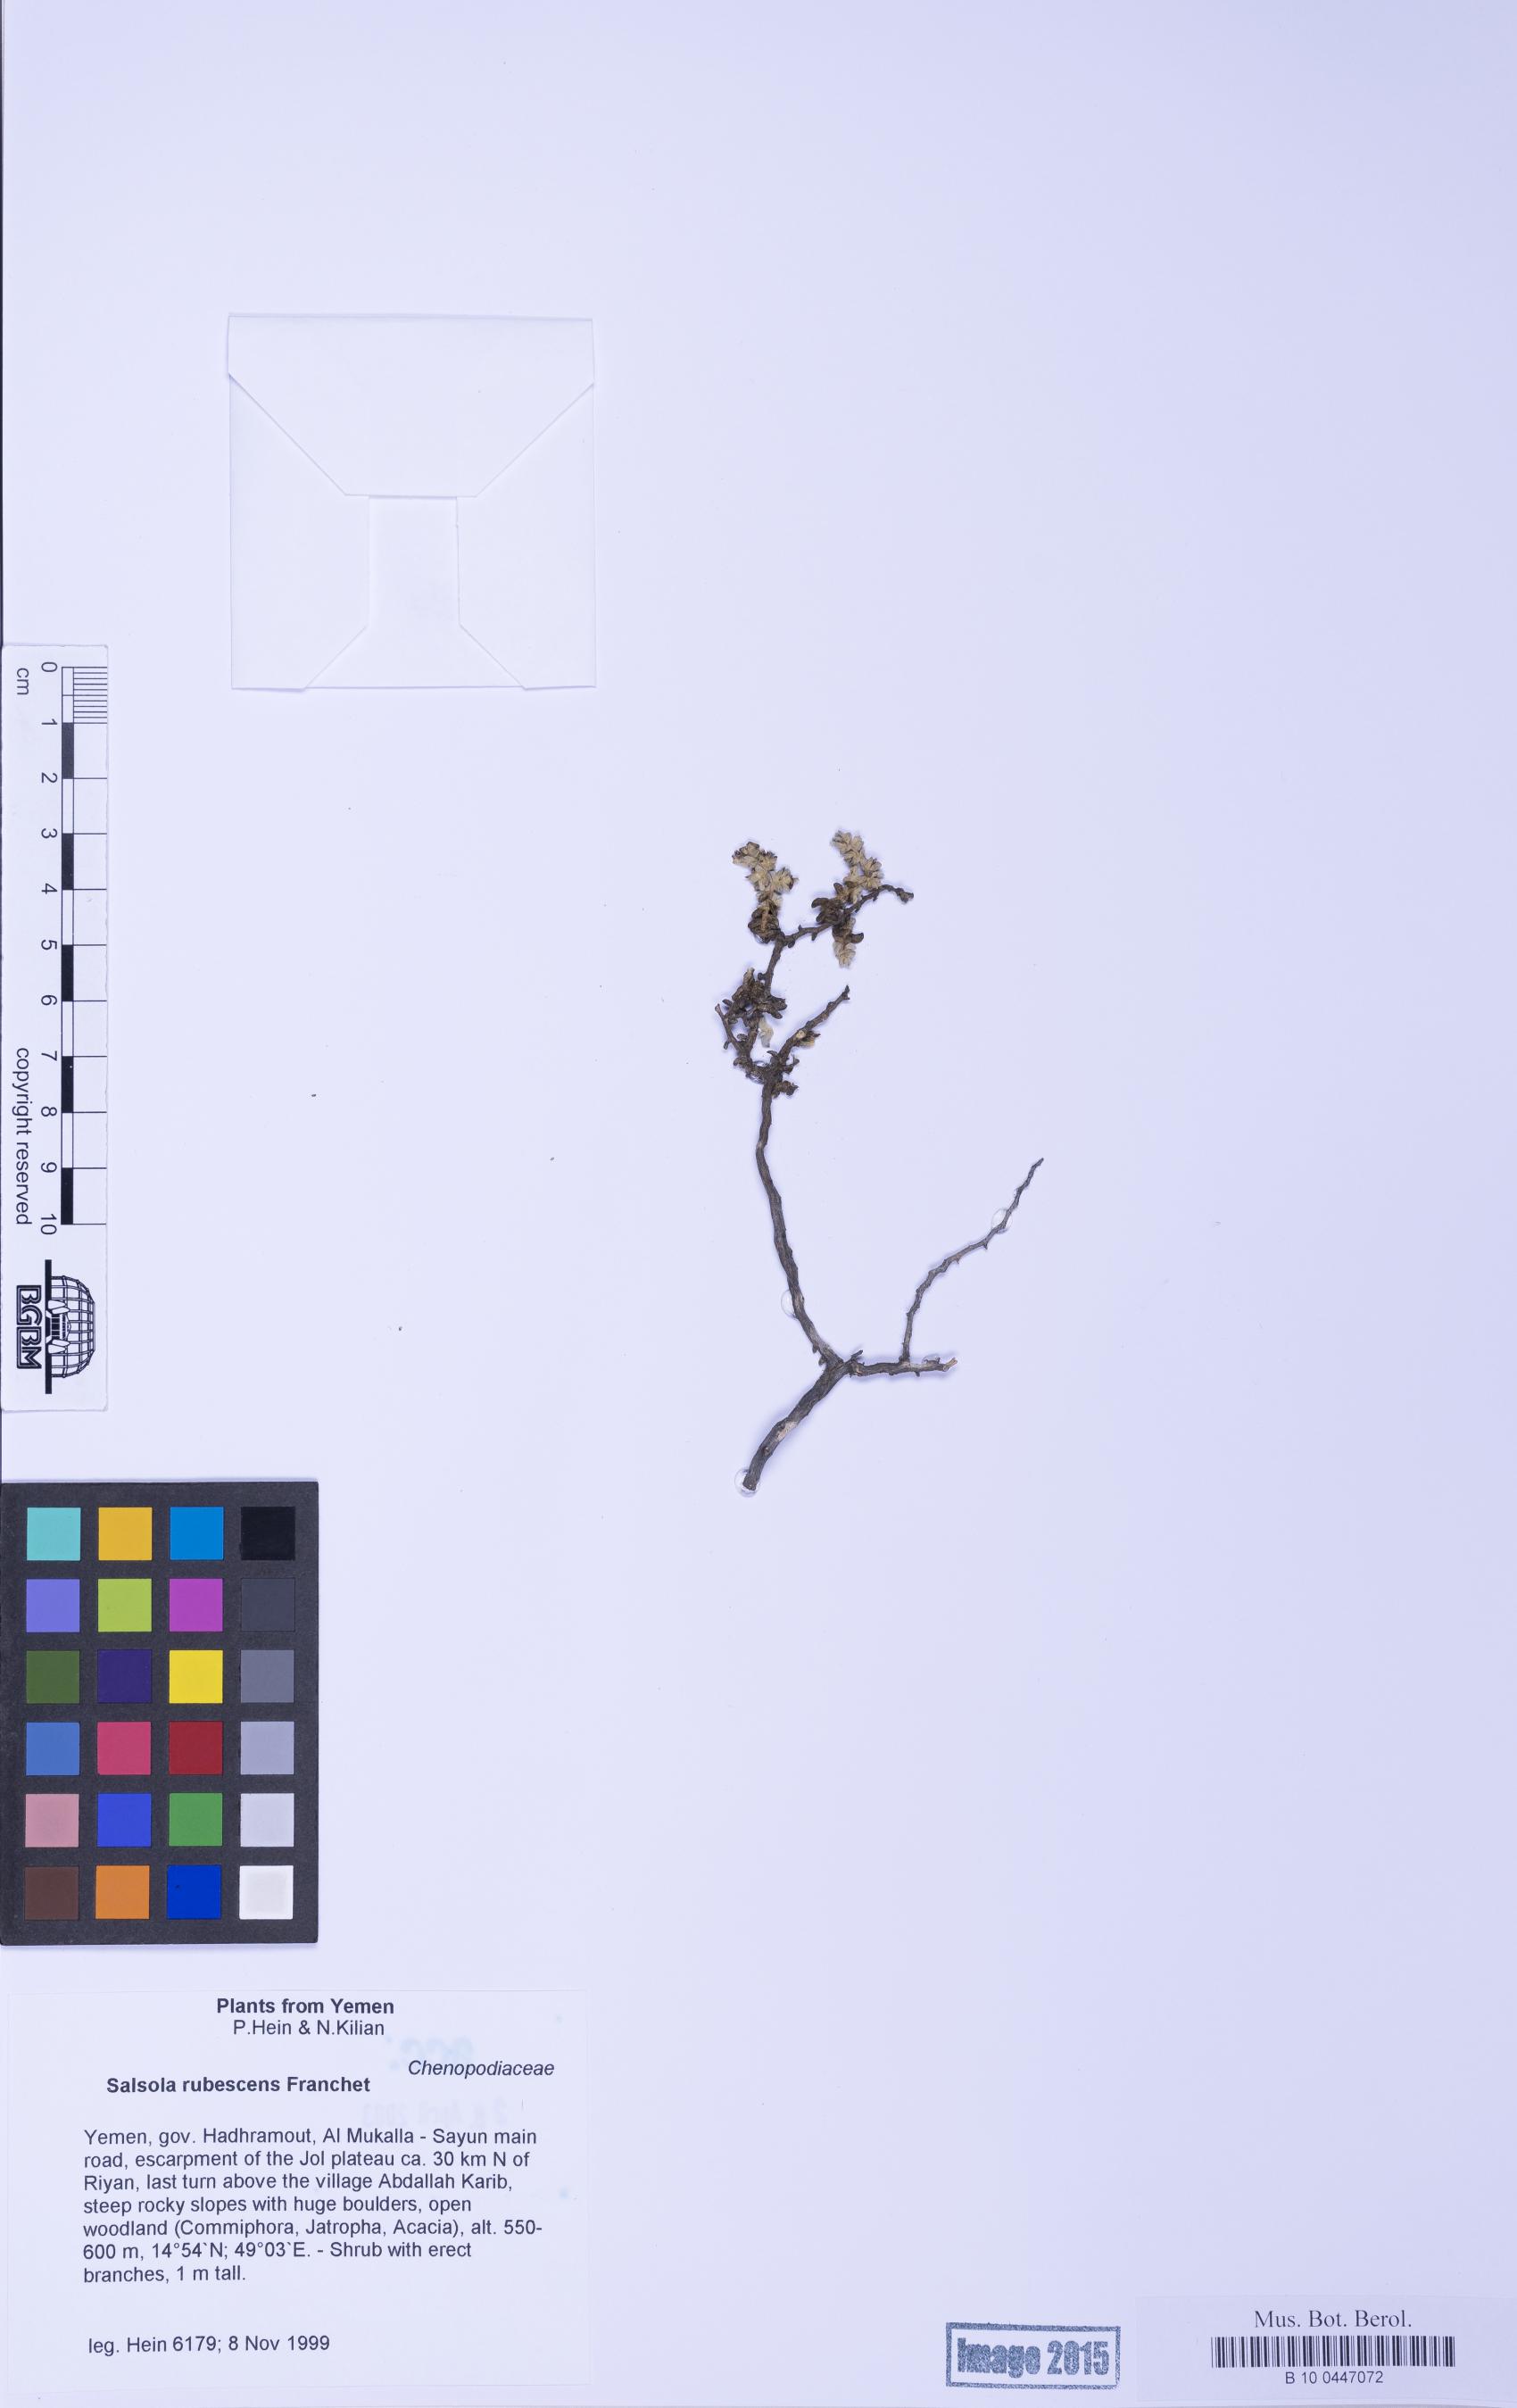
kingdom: Plantae
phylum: Tracheophyta
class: Magnoliopsida
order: Caryophyllales
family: Amaranthaceae
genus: Kaviria
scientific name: Kaviria rubescens
